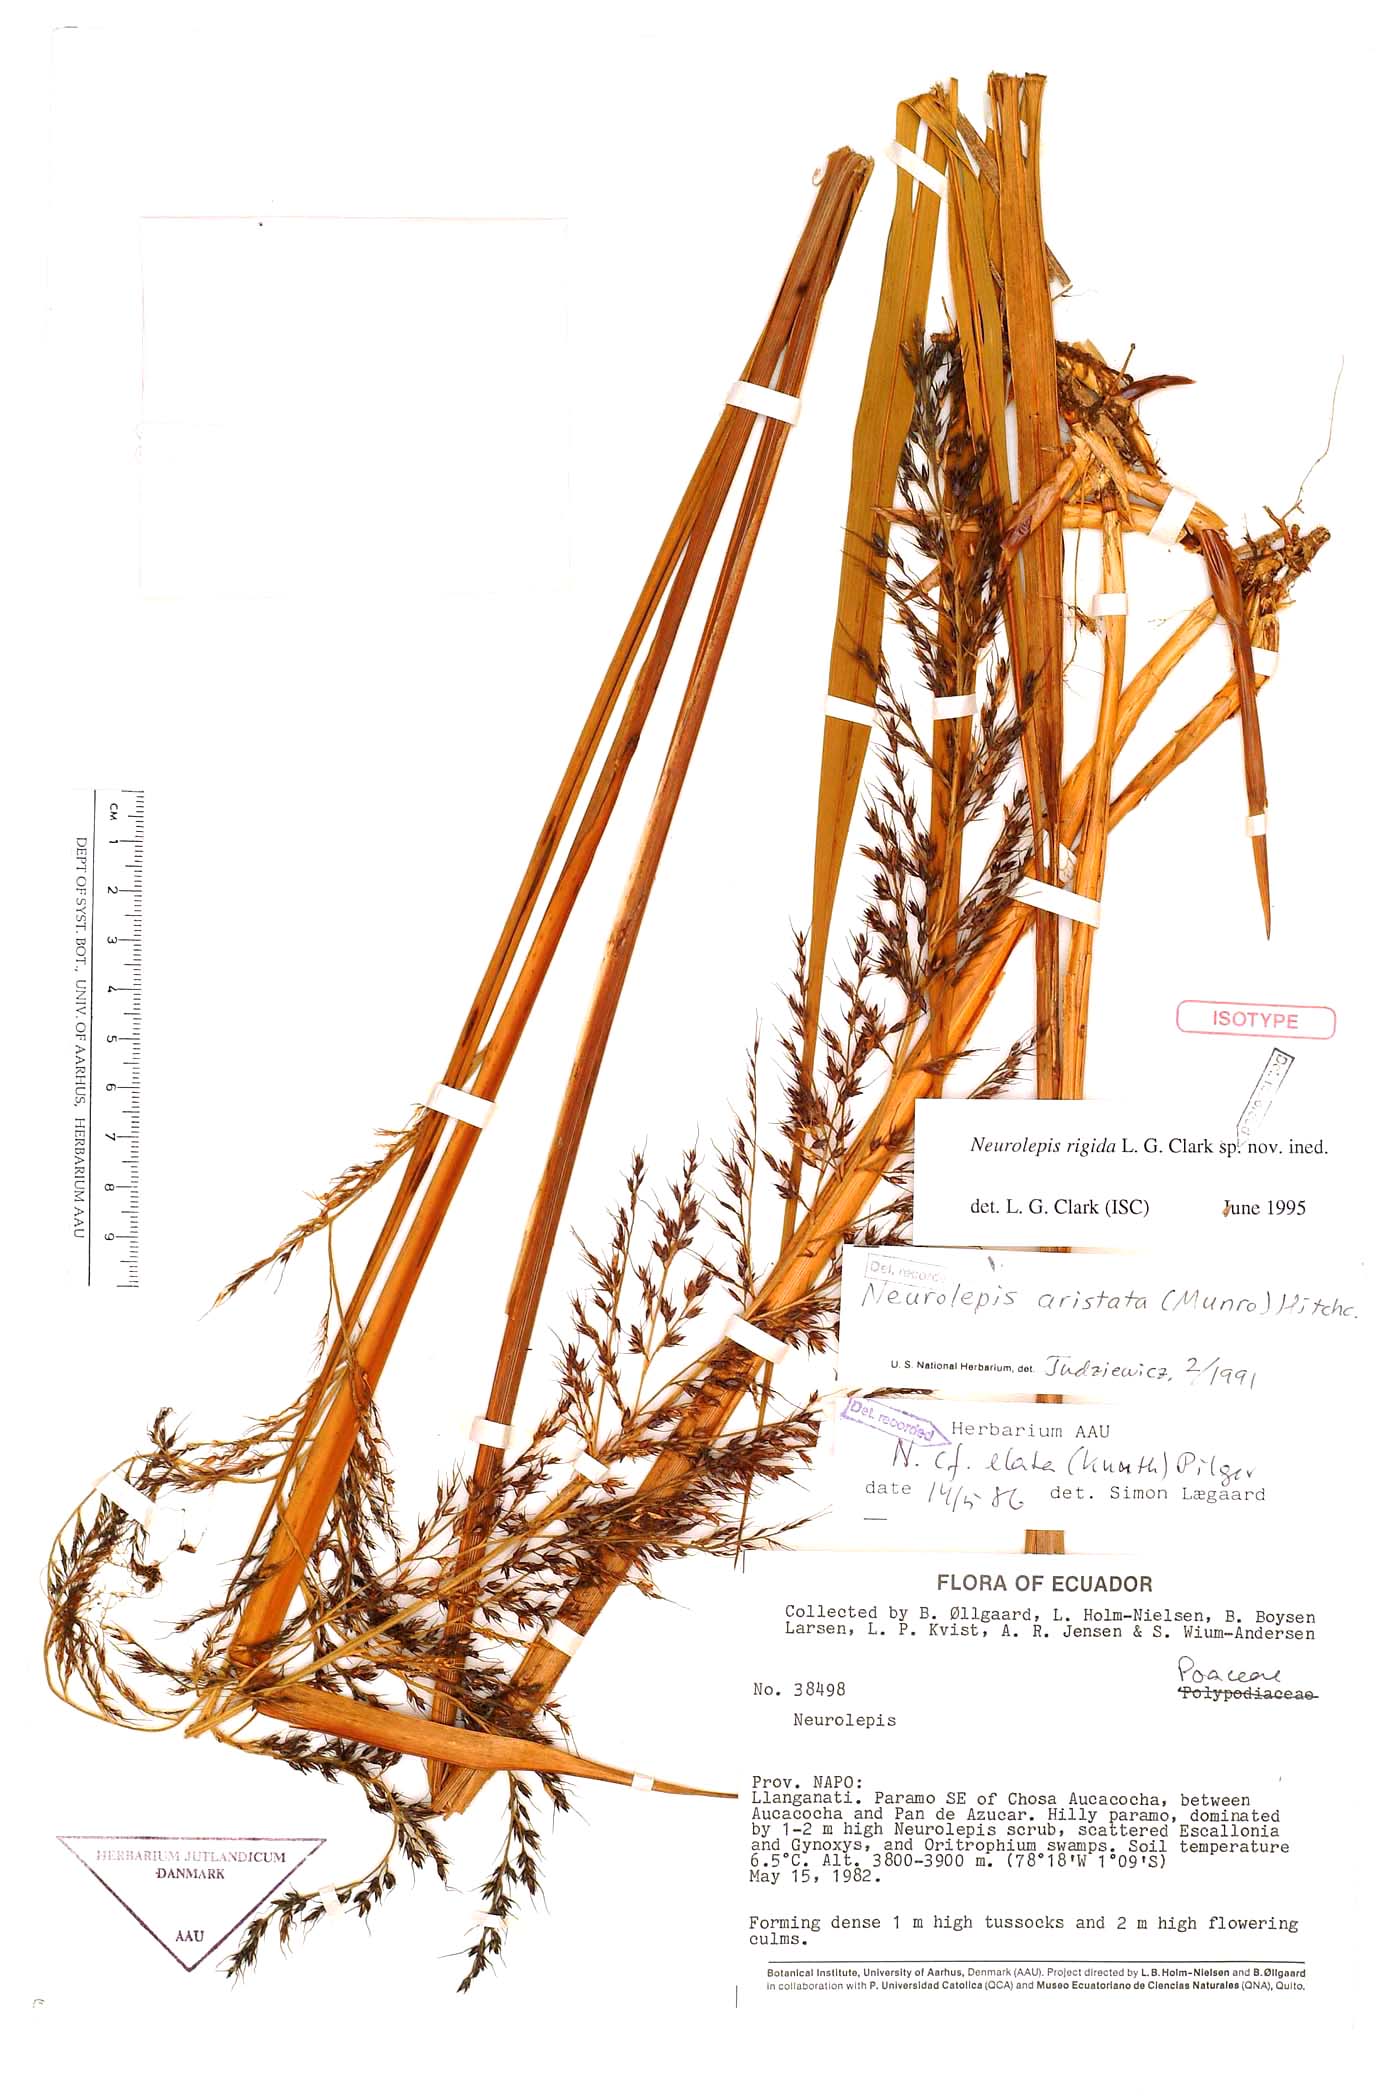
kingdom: Plantae
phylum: Tracheophyta
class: Liliopsida
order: Poales
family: Poaceae
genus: Chusquea
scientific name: Chusquea rigida
